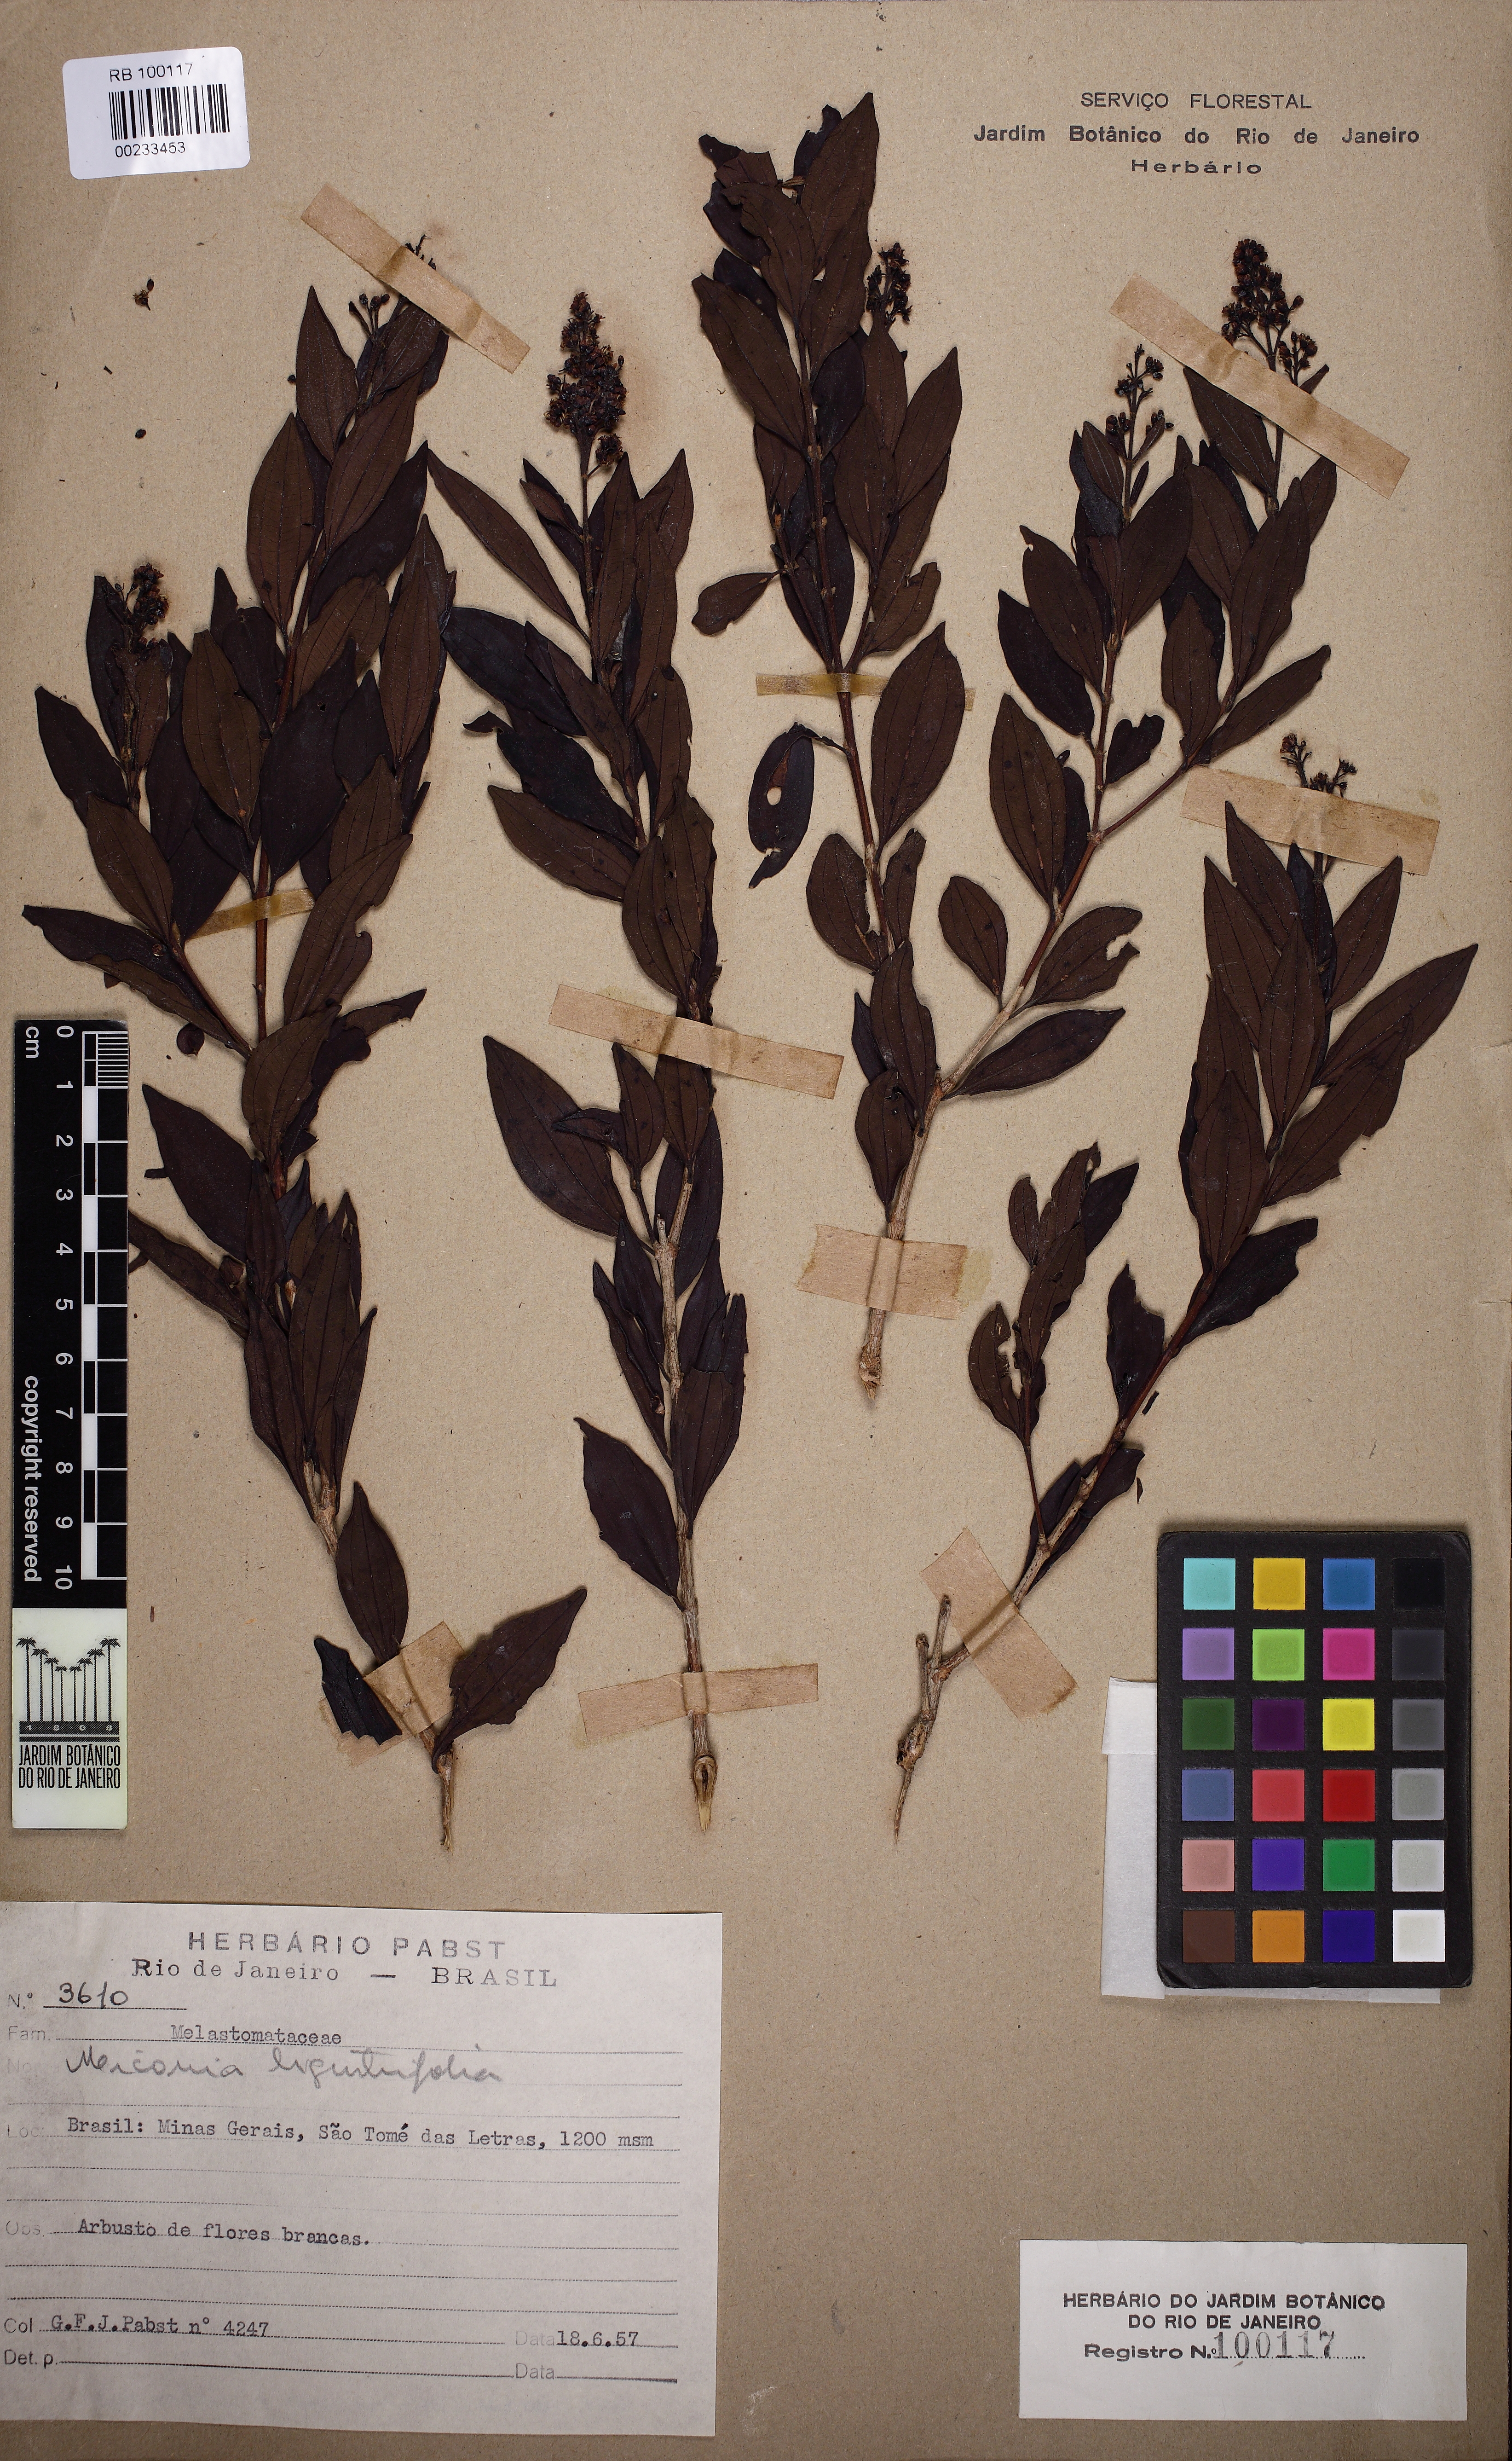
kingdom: Plantae
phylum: Tracheophyta
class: Magnoliopsida
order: Myrtales
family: Melastomataceae
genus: Miconia
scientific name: Miconia ligustroides
